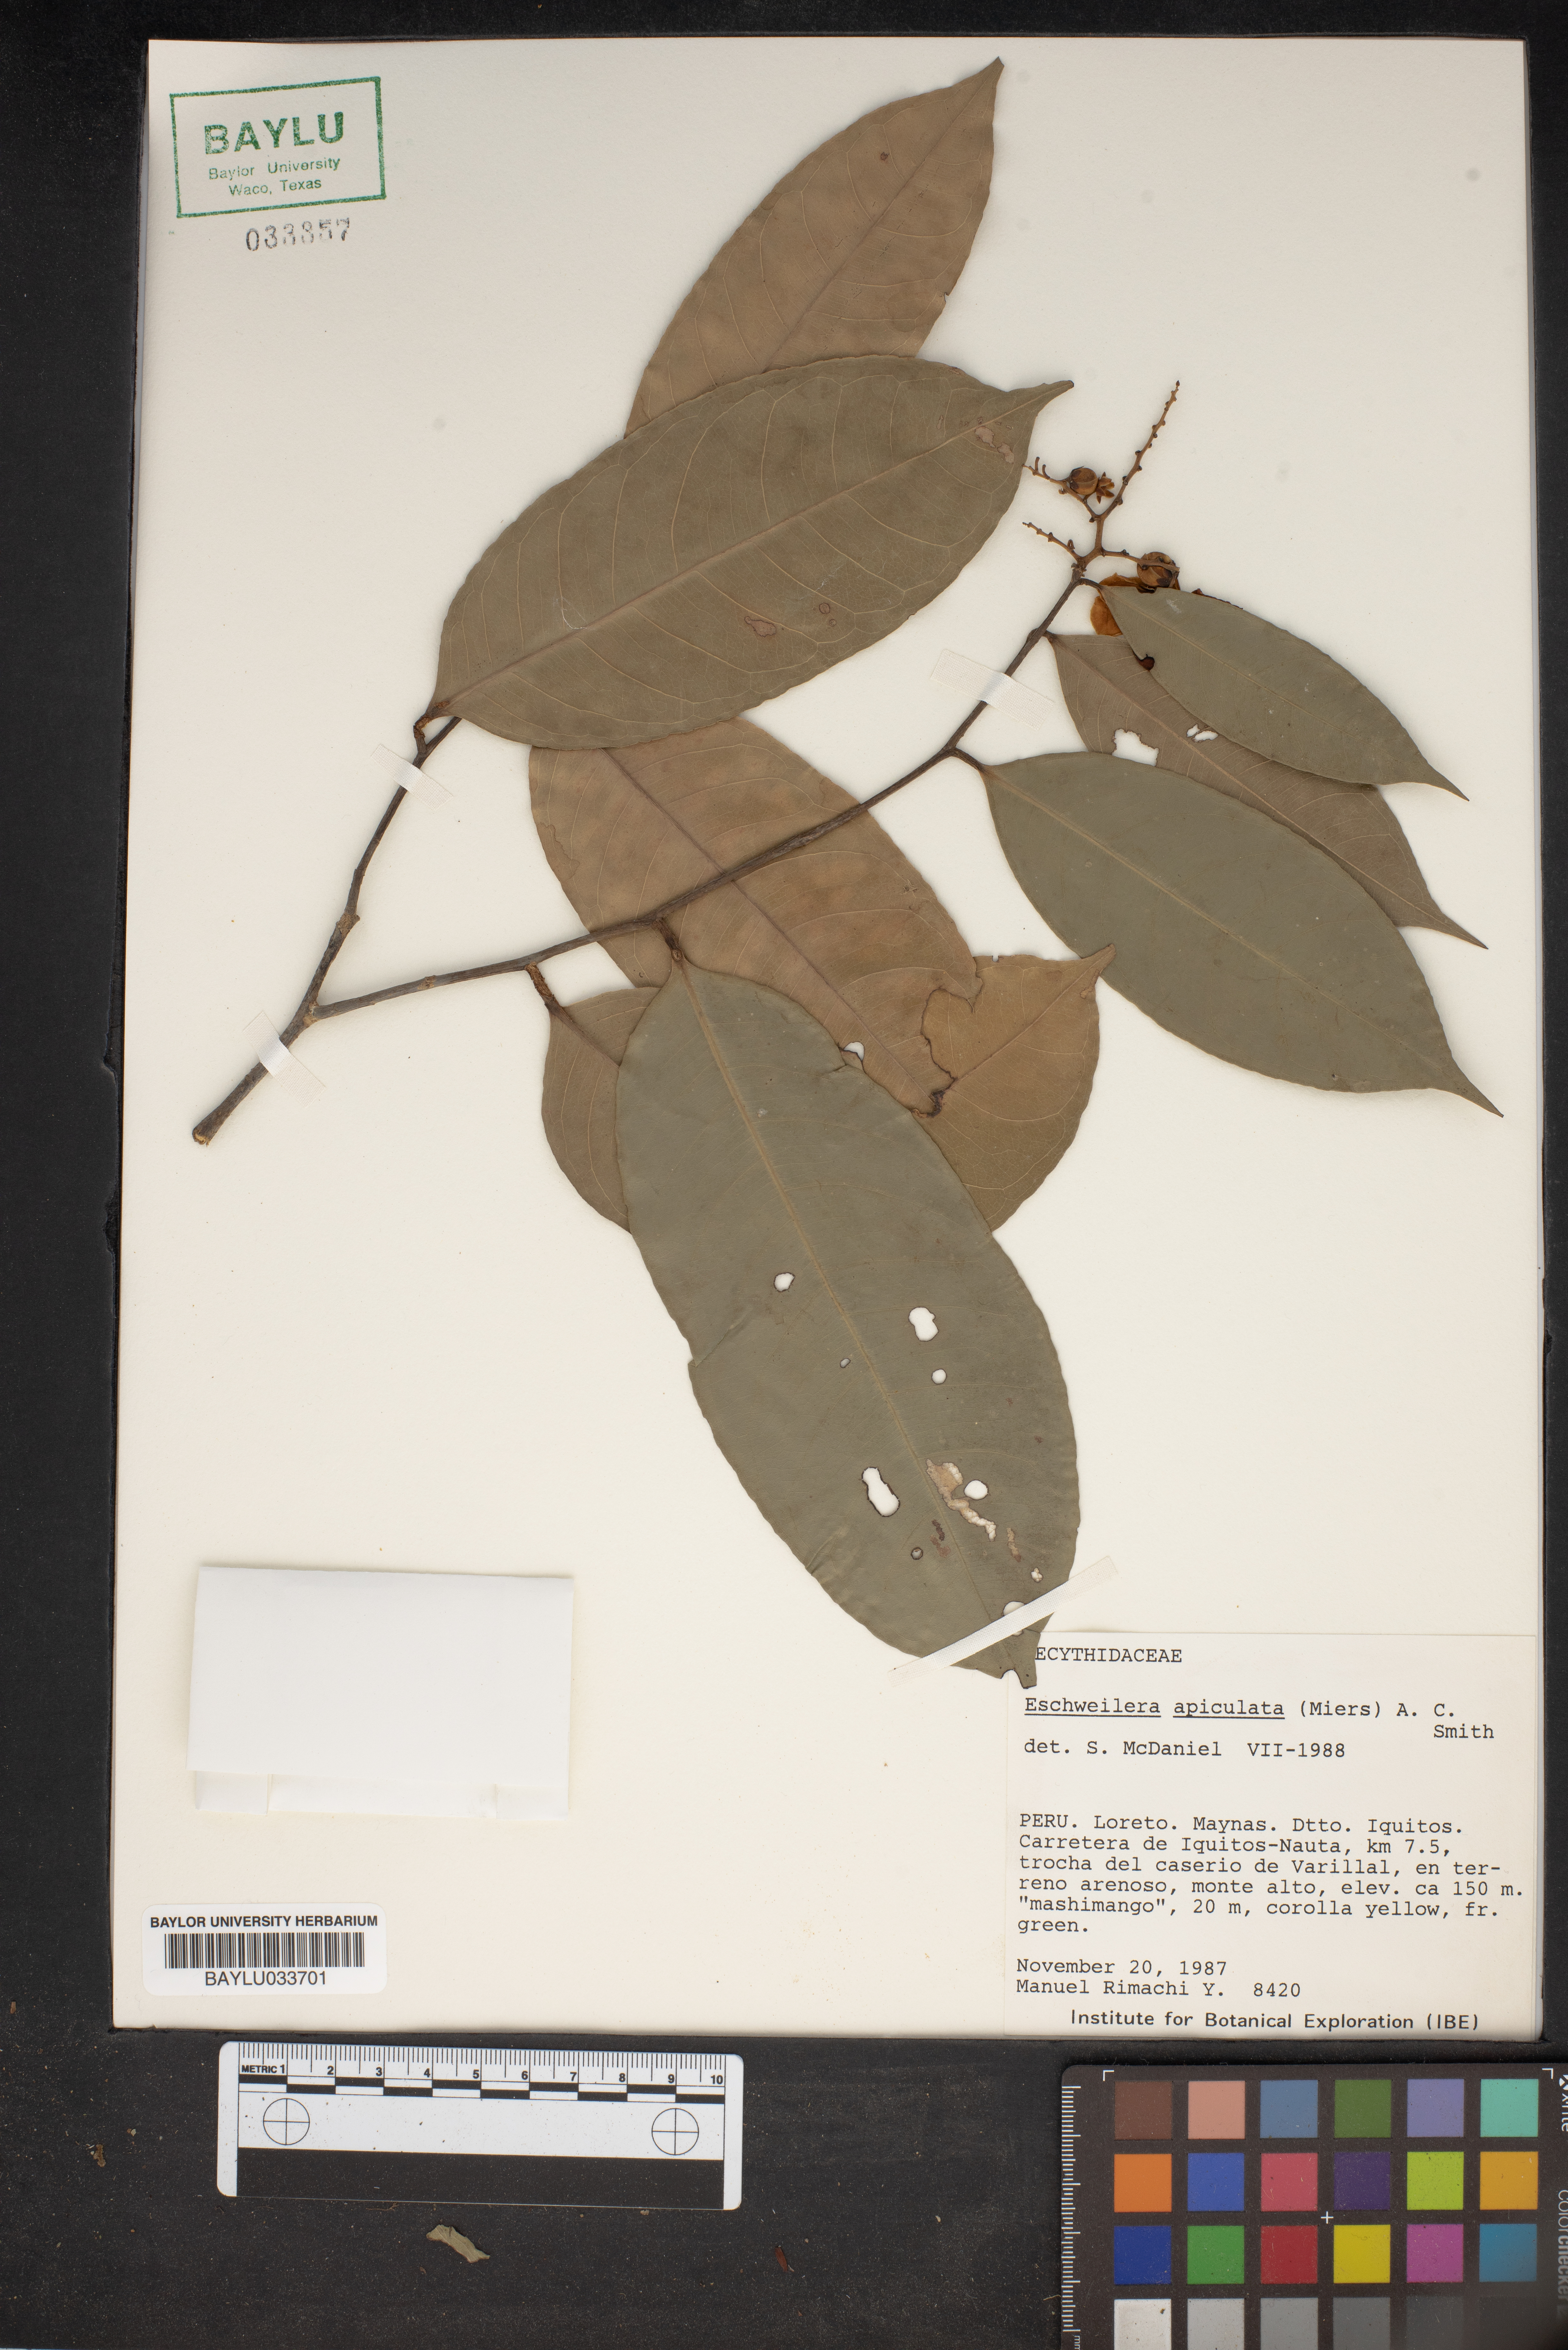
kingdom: Plantae
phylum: Tracheophyta
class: Magnoliopsida
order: Ericales
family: Lecythidaceae
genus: Eschweilera
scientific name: Eschweilera apiculata
